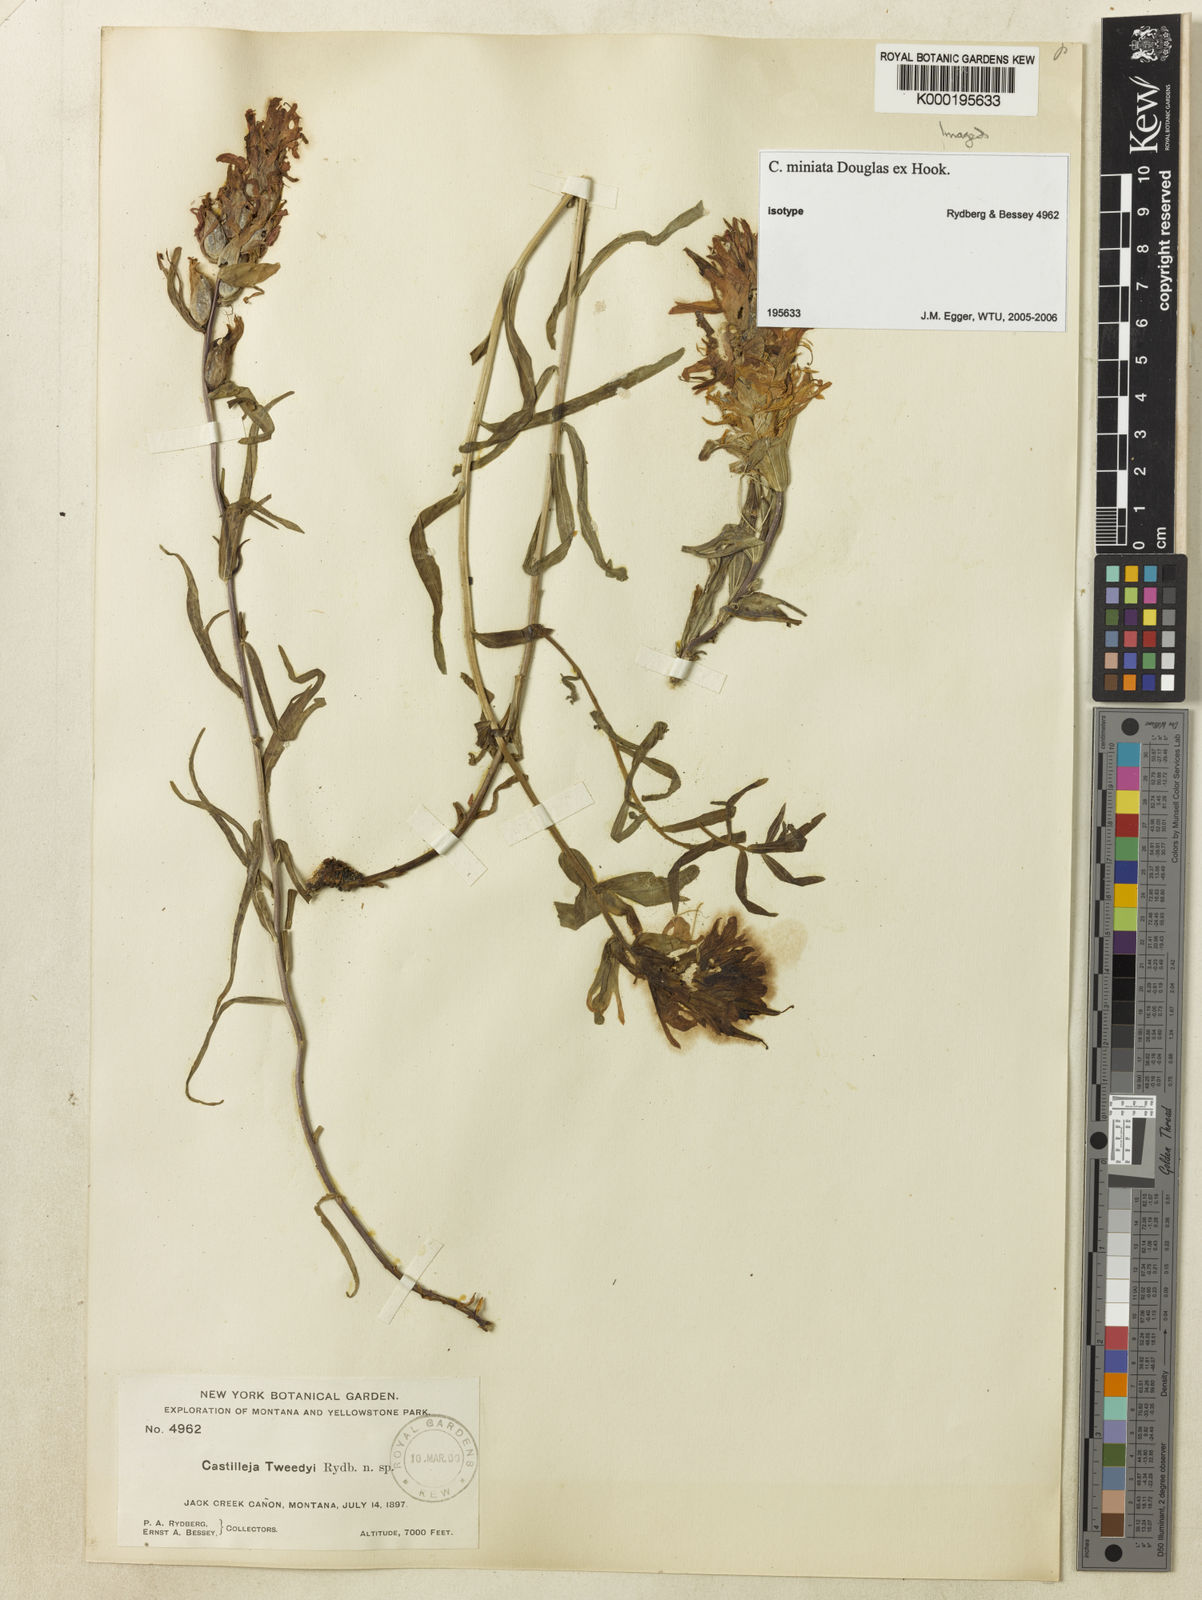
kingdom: Plantae
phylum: Tracheophyta
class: Magnoliopsida
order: Lamiales
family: Orobanchaceae
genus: Castilleja
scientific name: Castilleja
